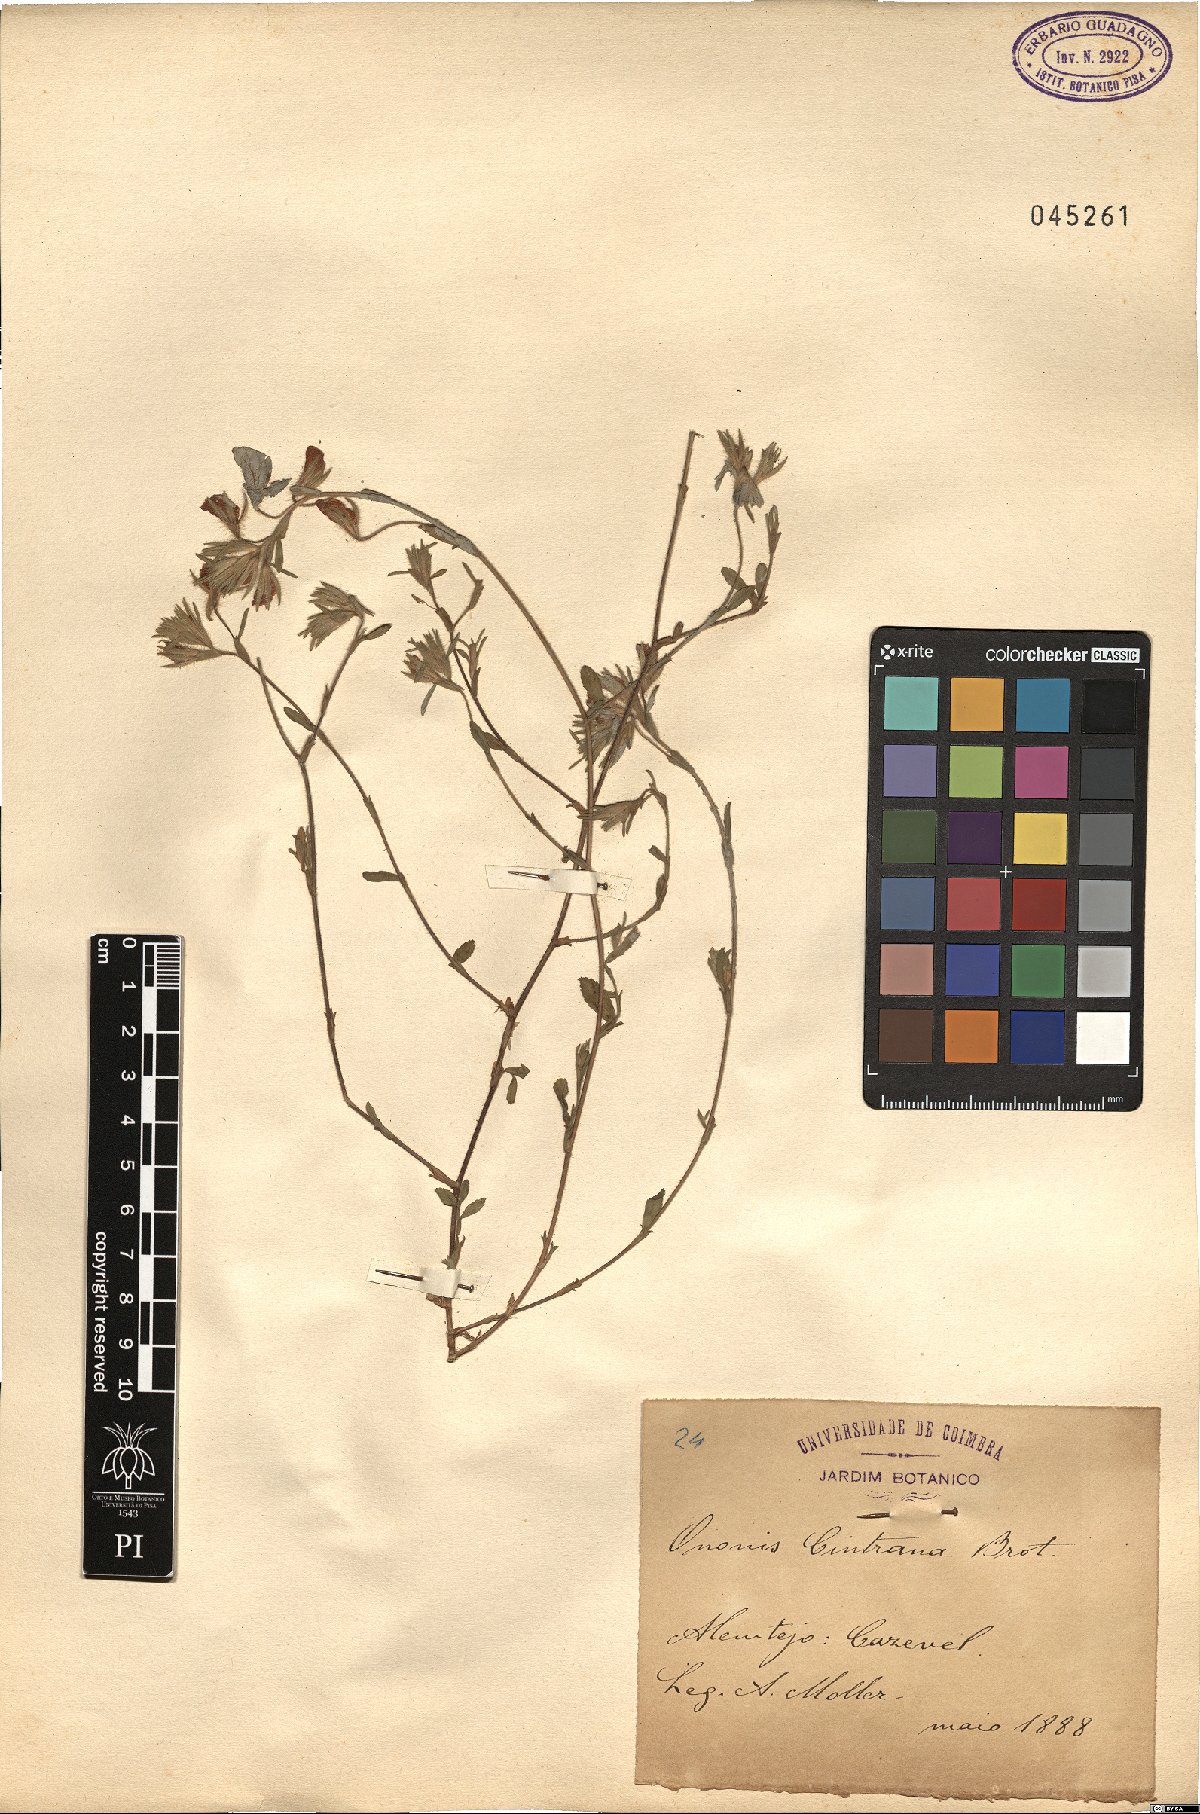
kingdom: Plantae
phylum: Tracheophyta
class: Magnoliopsida
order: Fabales
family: Fabaceae
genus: Ononis
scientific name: Ononis cintrana
